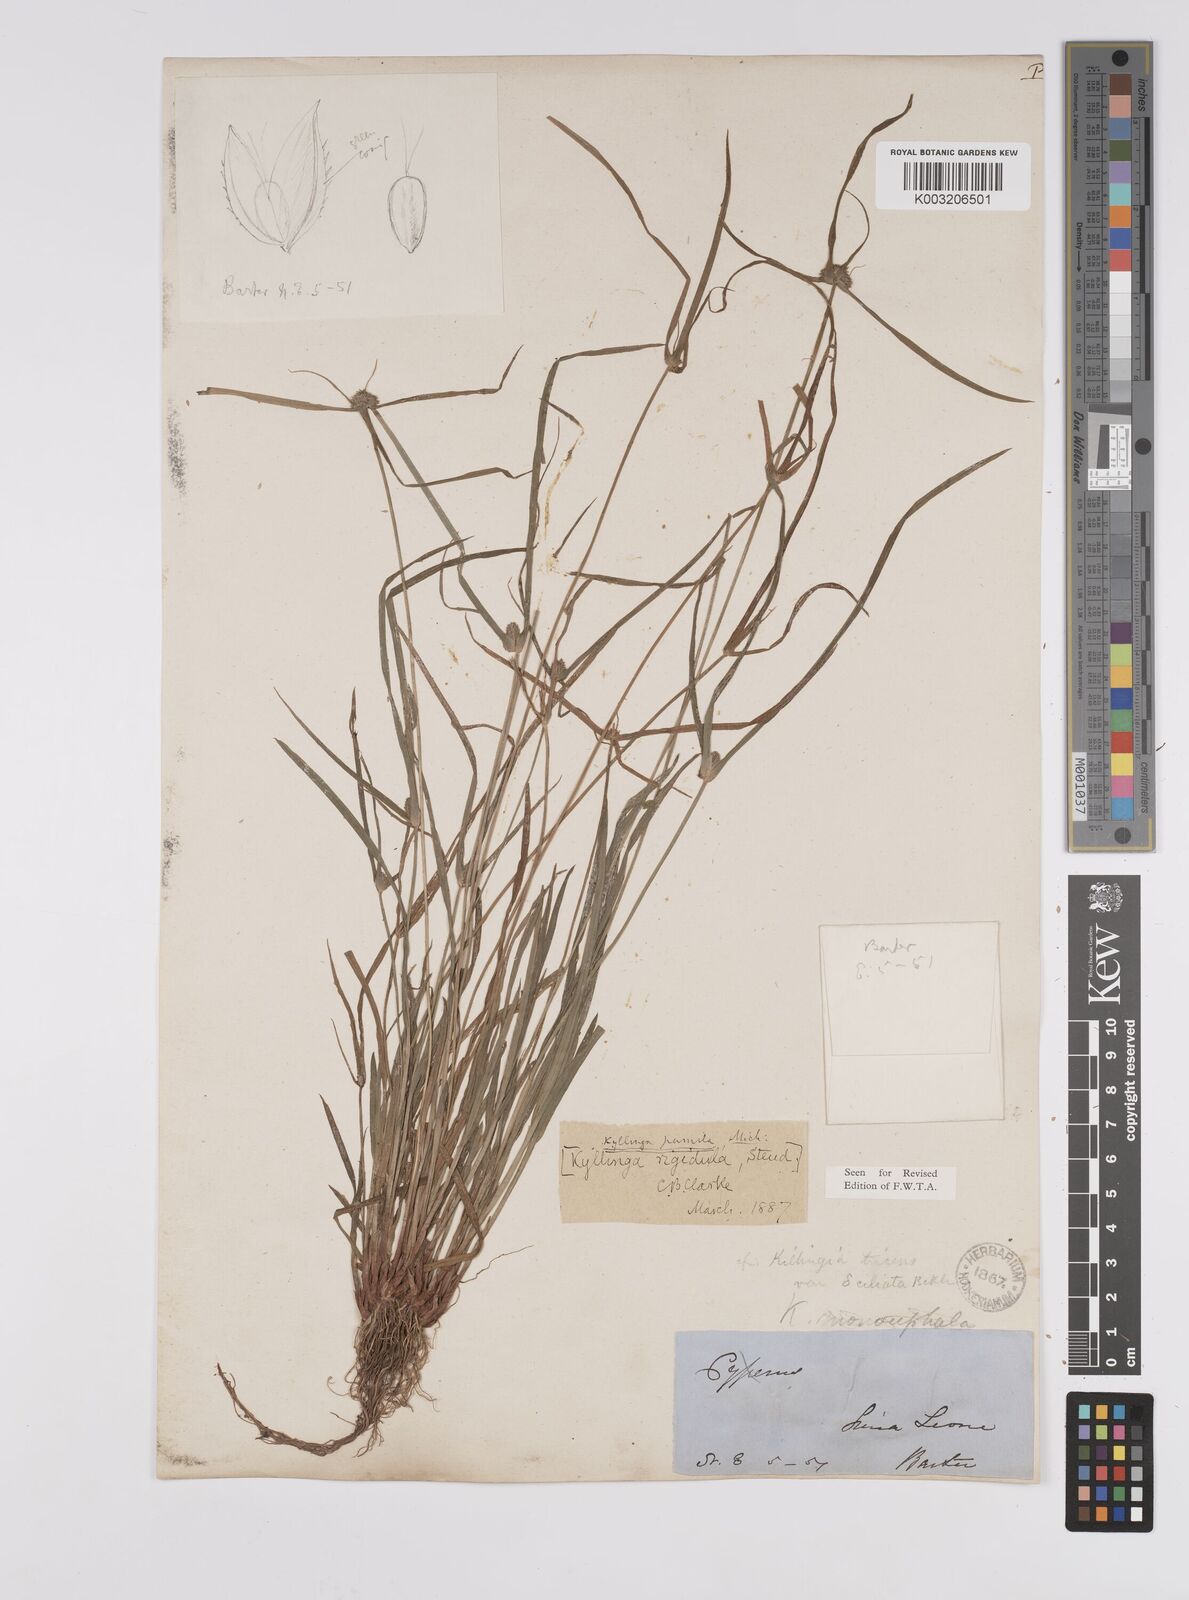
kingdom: Plantae
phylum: Tracheophyta
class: Liliopsida
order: Poales
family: Cyperaceae
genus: Cyperus
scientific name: Cyperus
